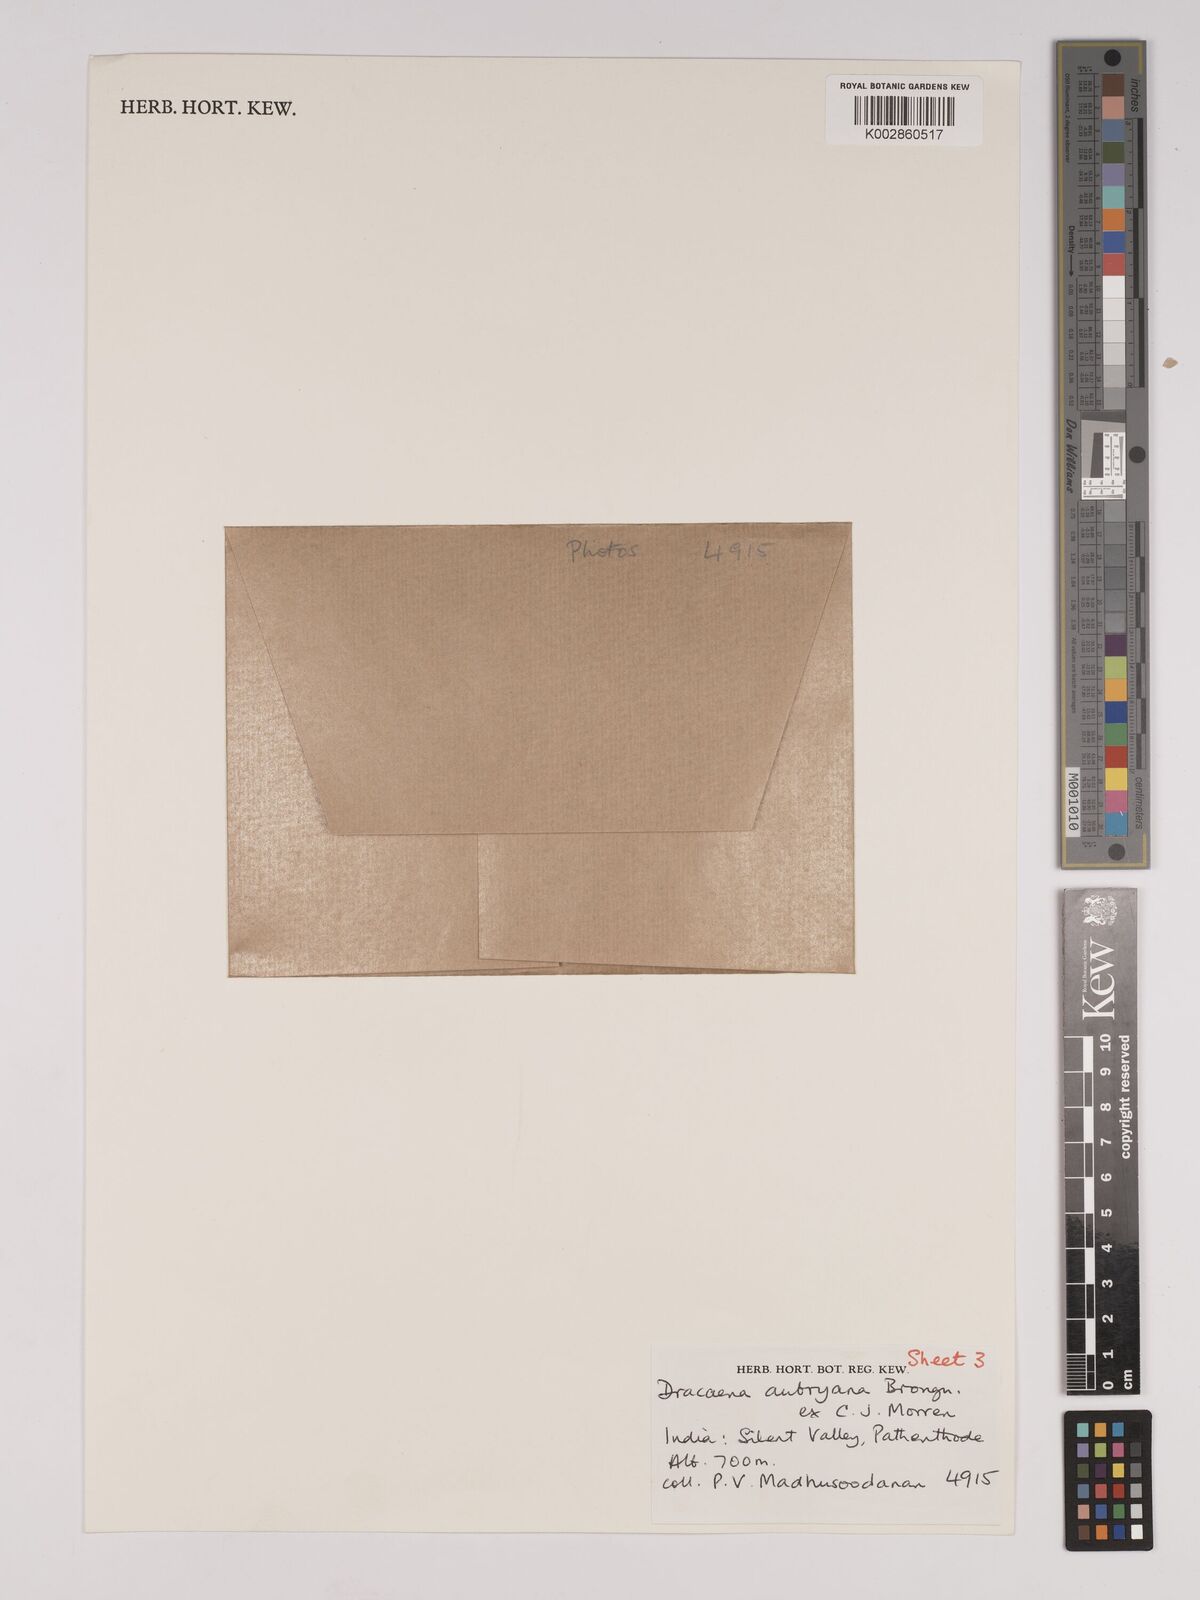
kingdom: Plantae
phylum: Tracheophyta
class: Liliopsida
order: Asparagales
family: Asparagaceae
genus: Dracaena
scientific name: Dracaena aubryana
